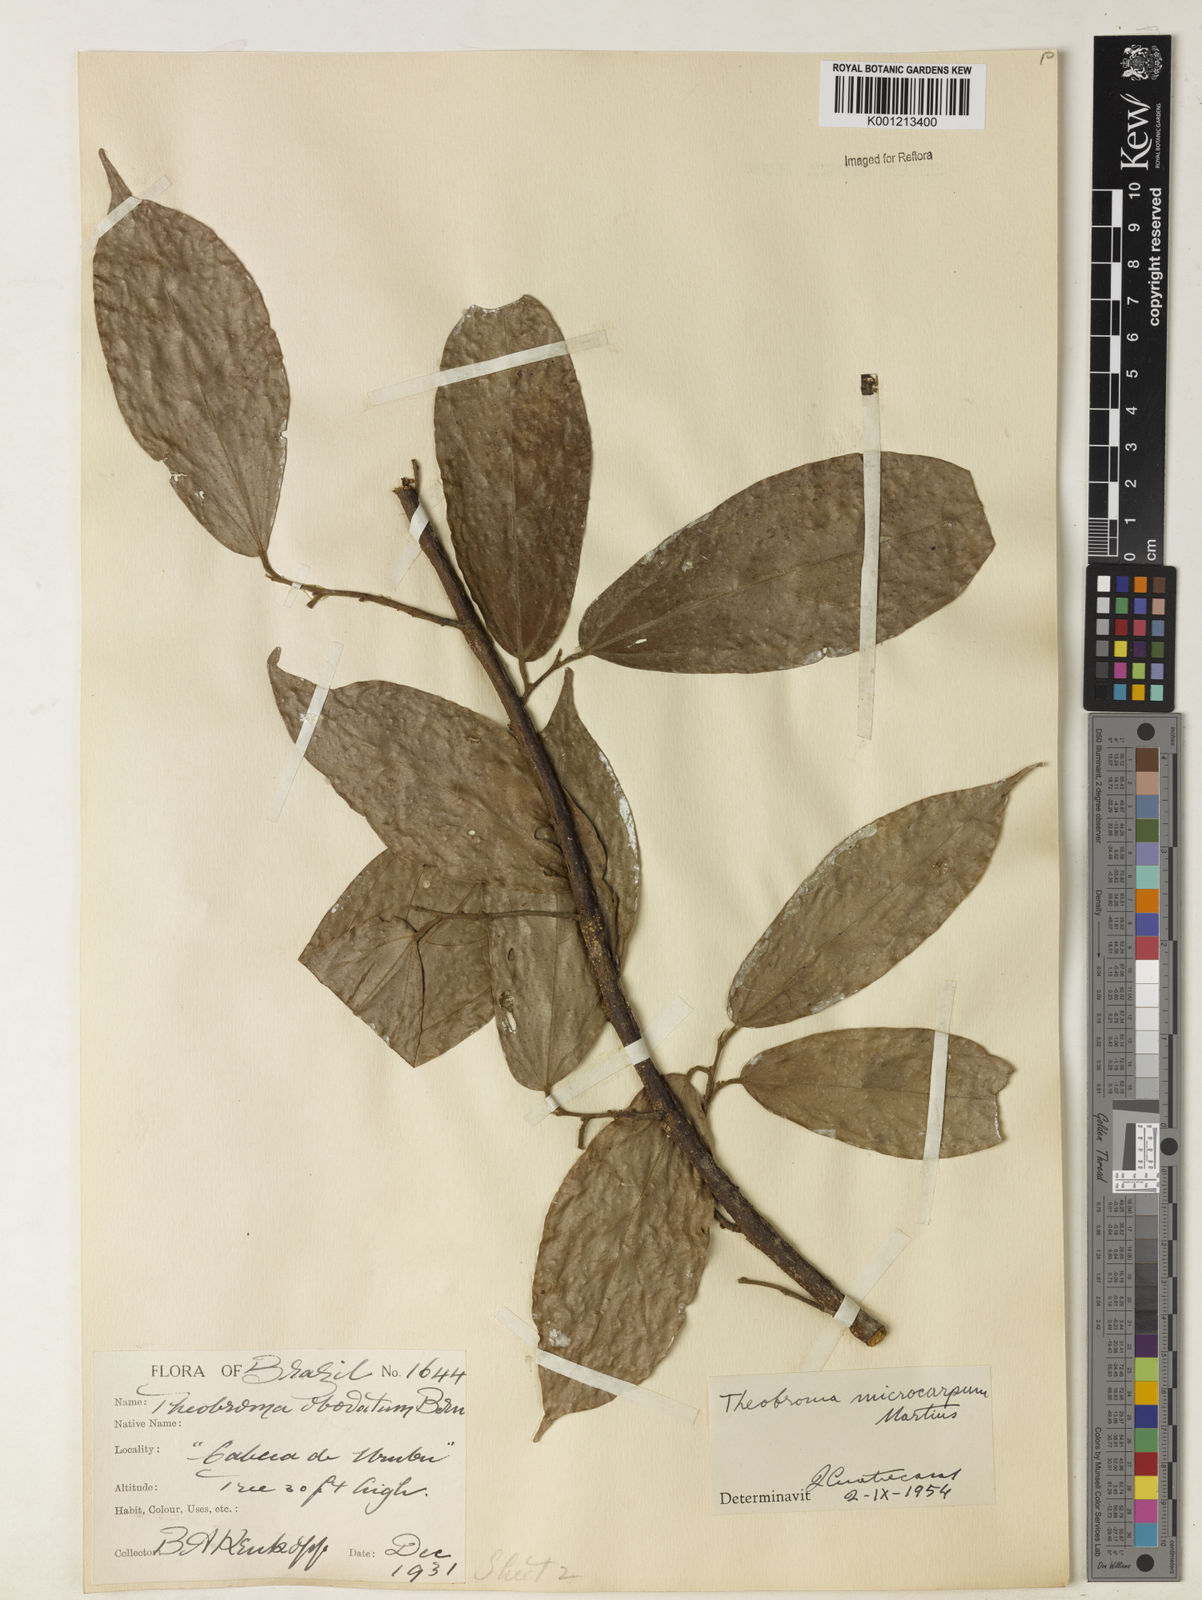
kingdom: Plantae
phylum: Tracheophyta
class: Magnoliopsida
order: Malvales
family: Malvaceae
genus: Theobroma
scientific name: Theobroma microcarpum
